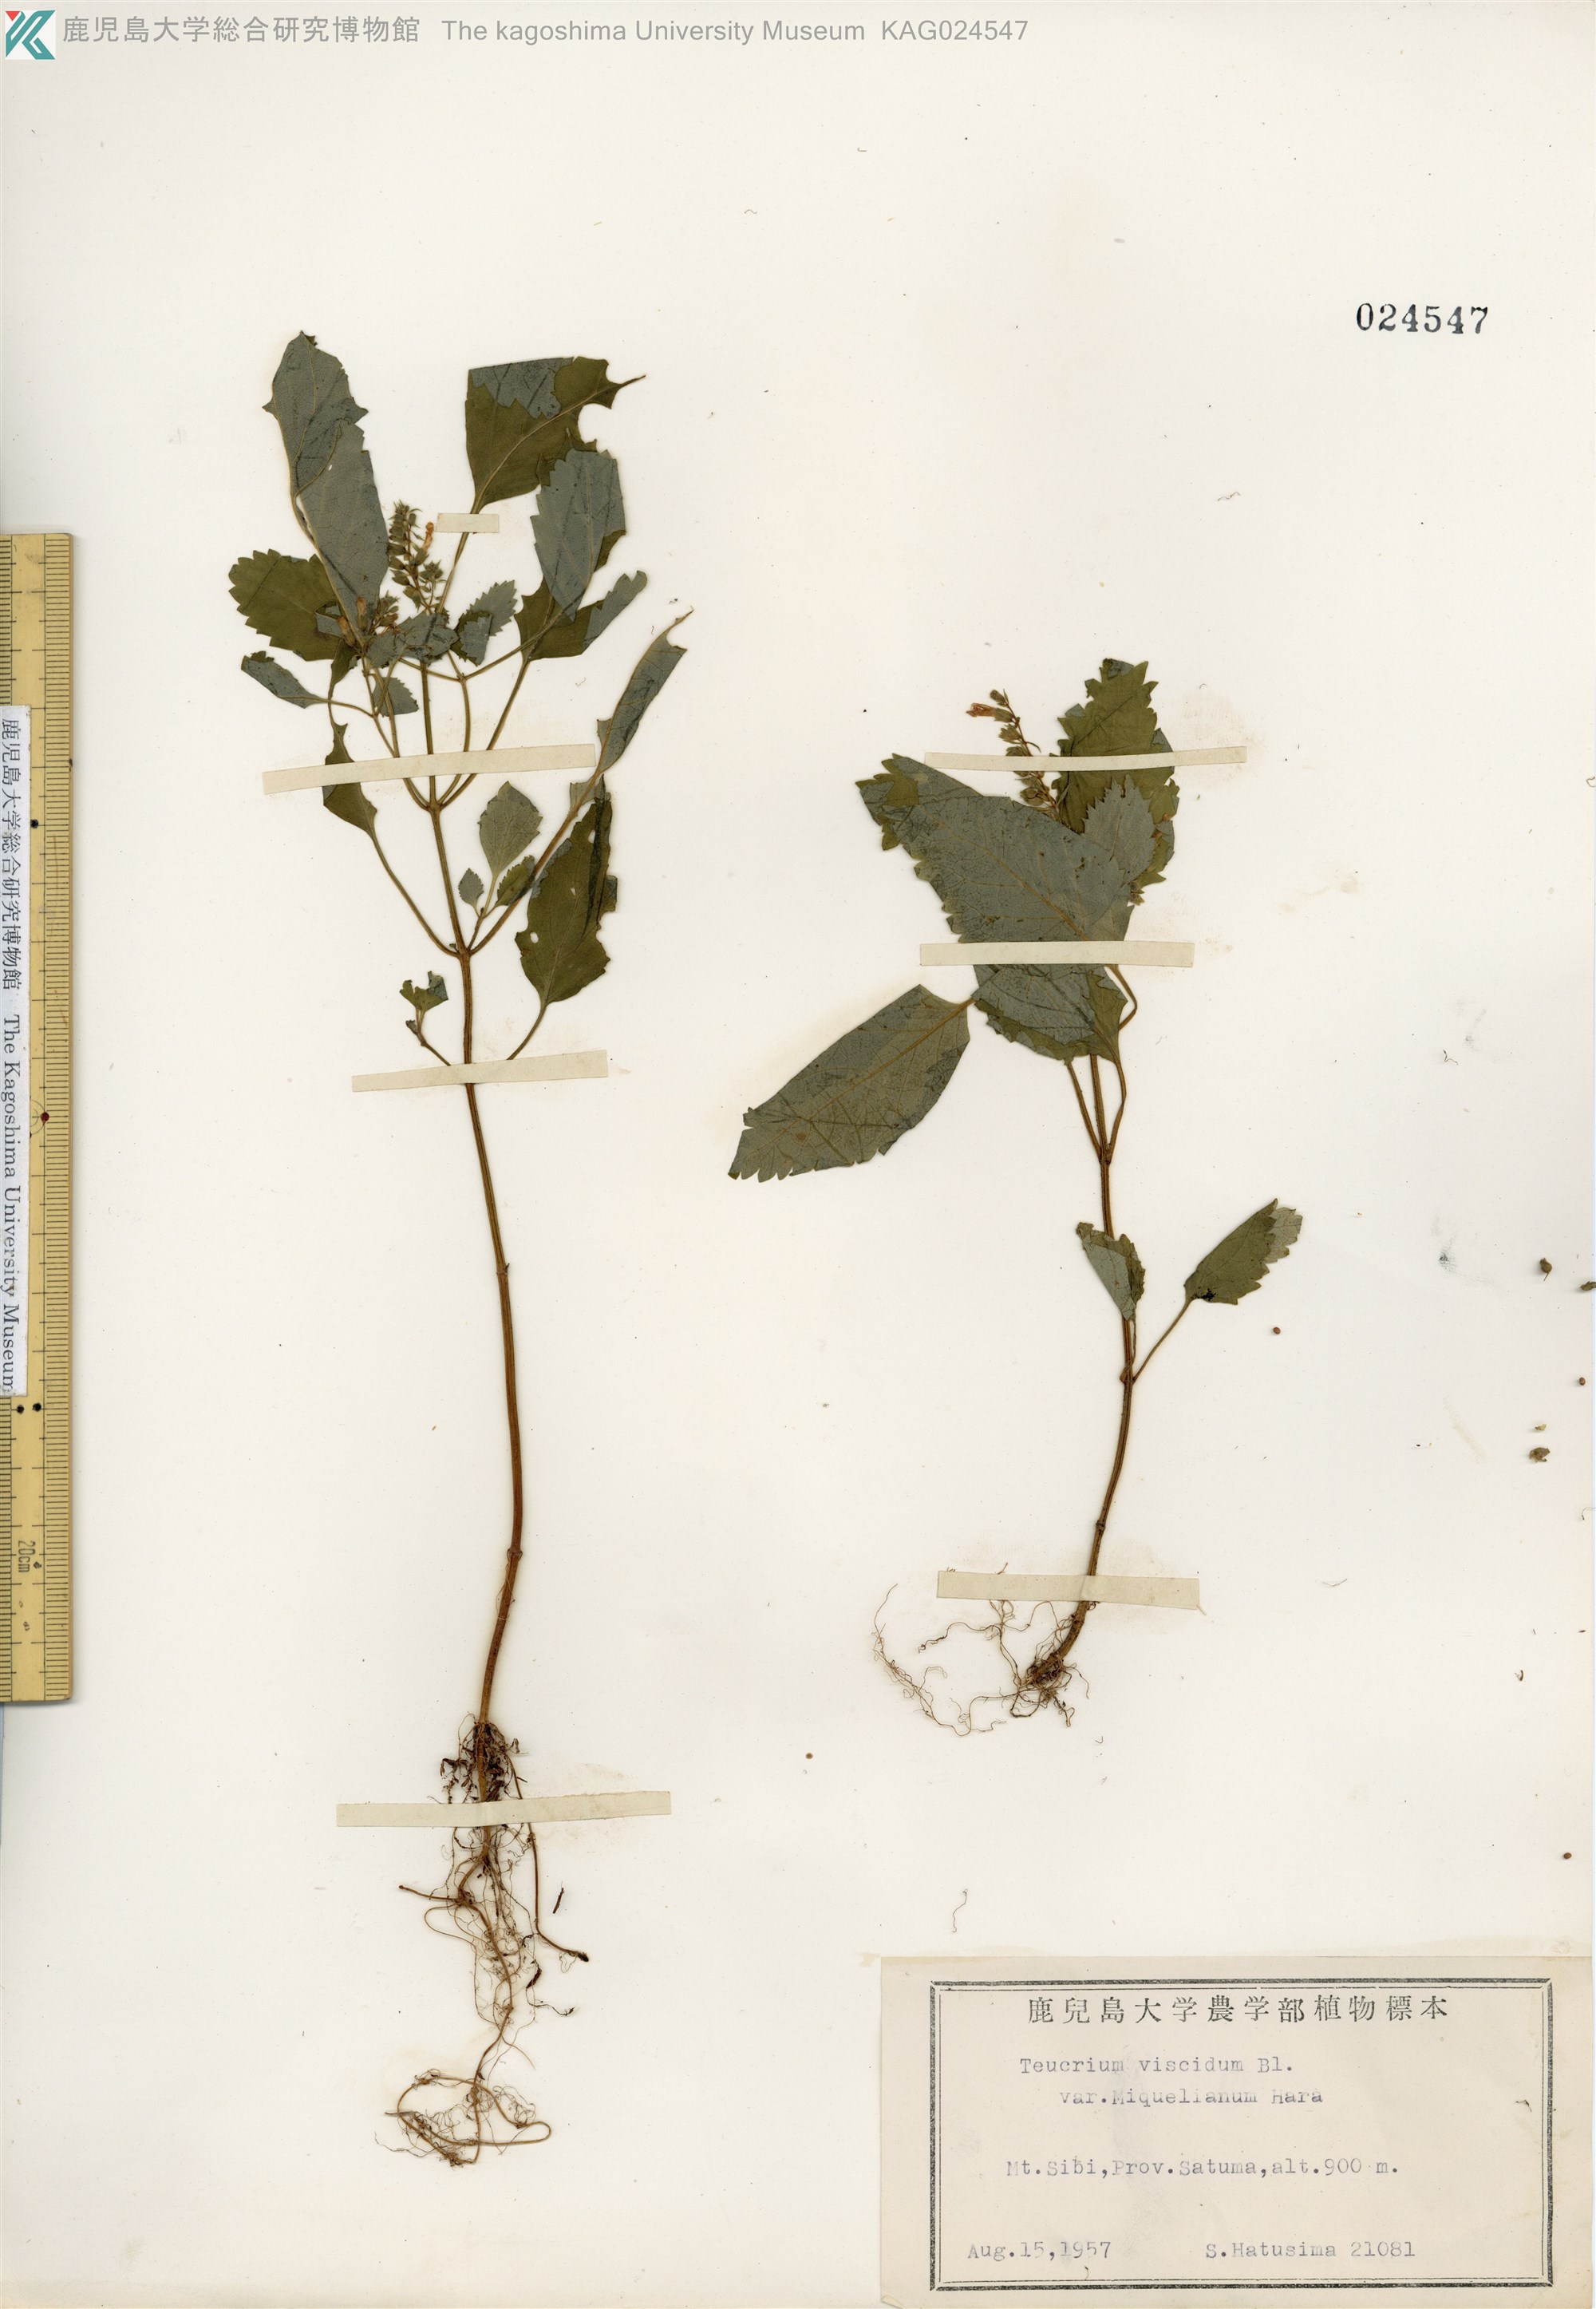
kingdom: Plantae
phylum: Tracheophyta
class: Magnoliopsida
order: Lamiales
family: Lamiaceae
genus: Teucrium
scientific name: Teucrium viscidum
